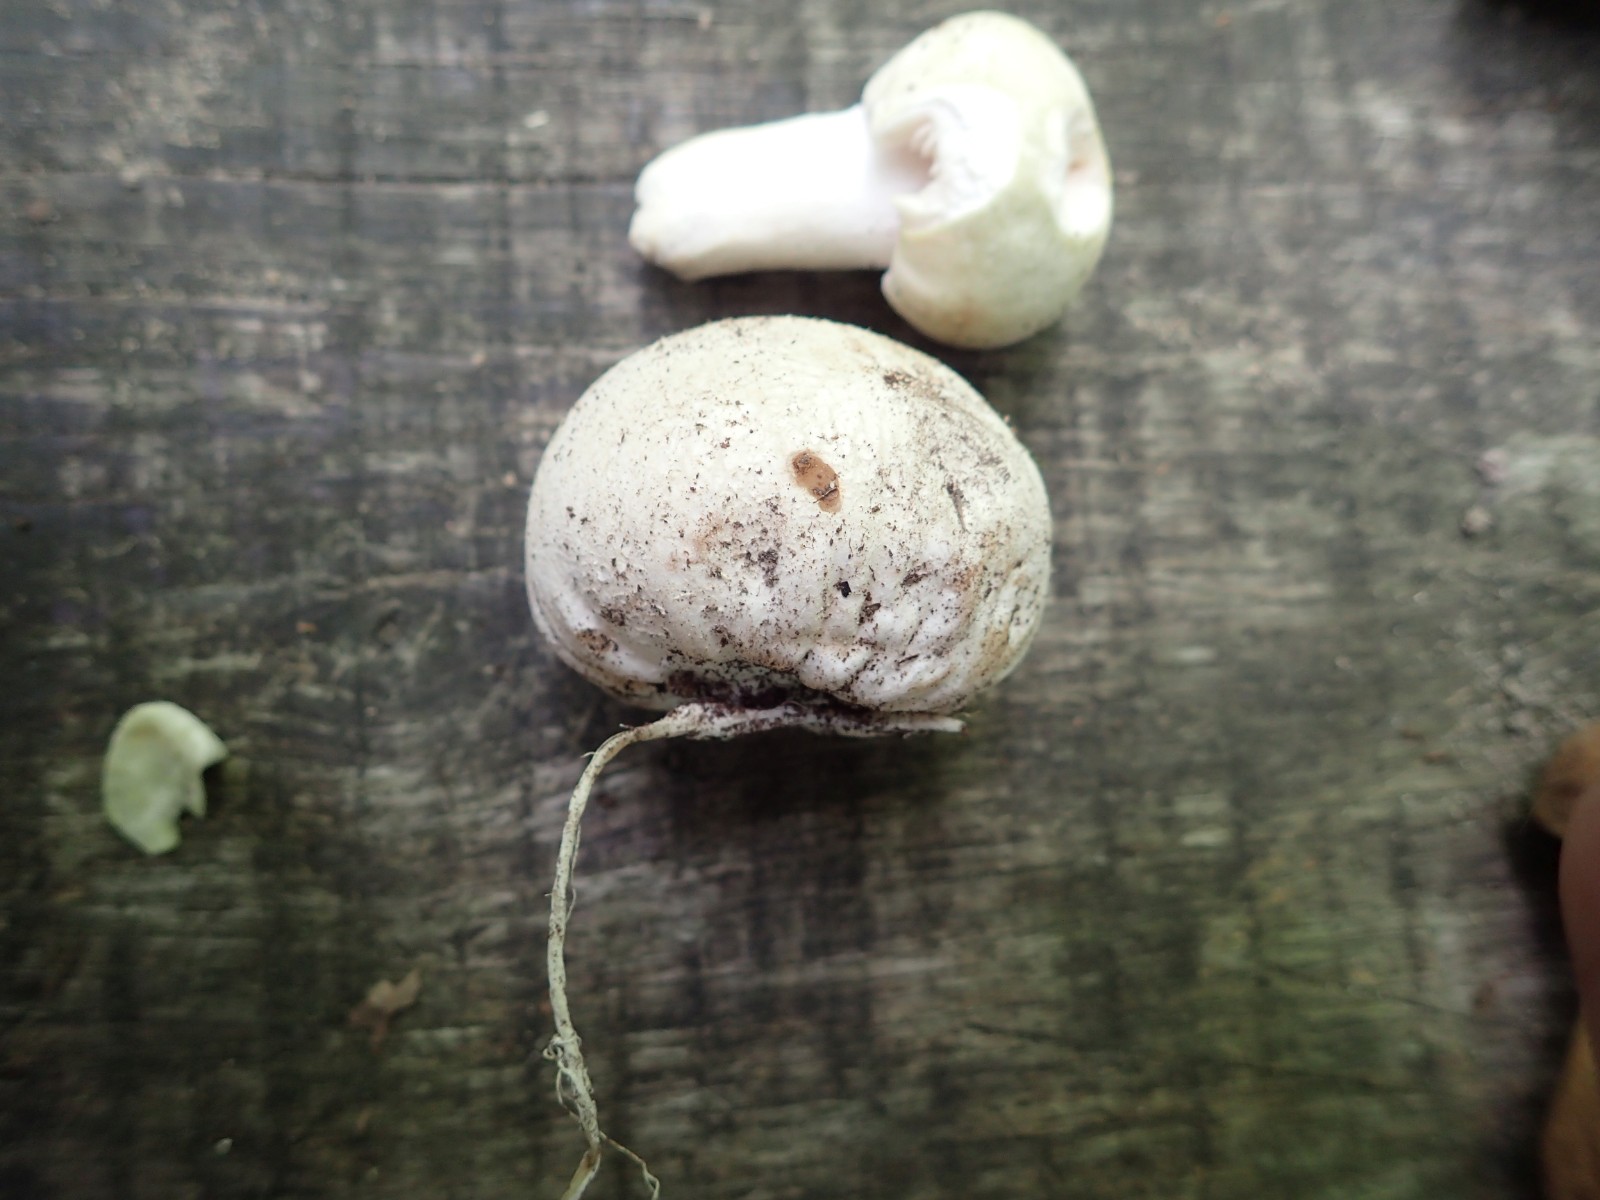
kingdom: Fungi
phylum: Basidiomycota
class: Agaricomycetes
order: Phallales
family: Phallaceae
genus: Phallus
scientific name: Phallus impudicus
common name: almindelig stinksvamp
